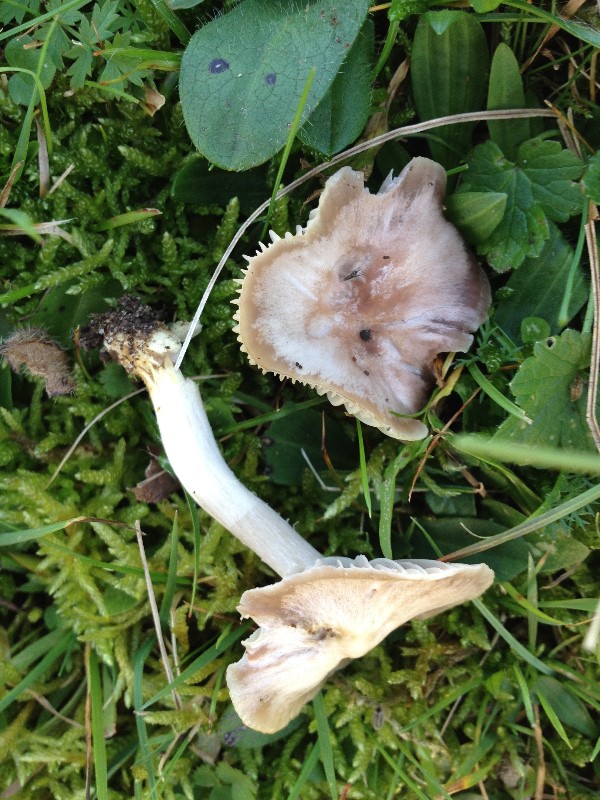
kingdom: Fungi
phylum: Basidiomycota
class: Agaricomycetes
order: Agaricales
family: Hygrophoraceae
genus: Cuphophyllus
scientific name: Cuphophyllus flavipes
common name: gulfodet vokshat
